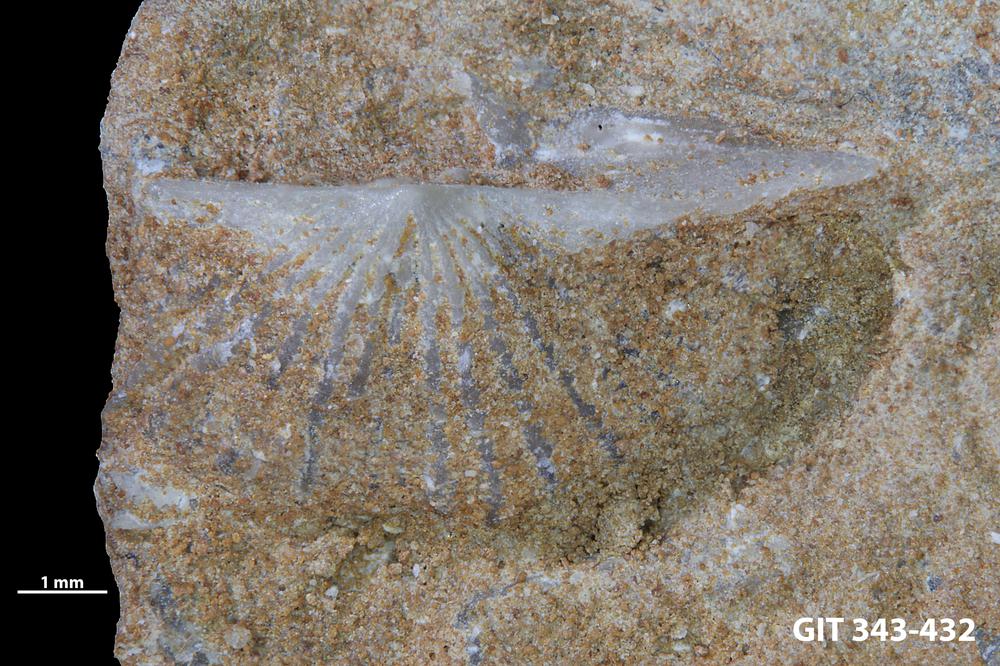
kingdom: Animalia
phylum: Brachiopoda
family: Kullervoidae
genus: Kullervo
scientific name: Kullervo
